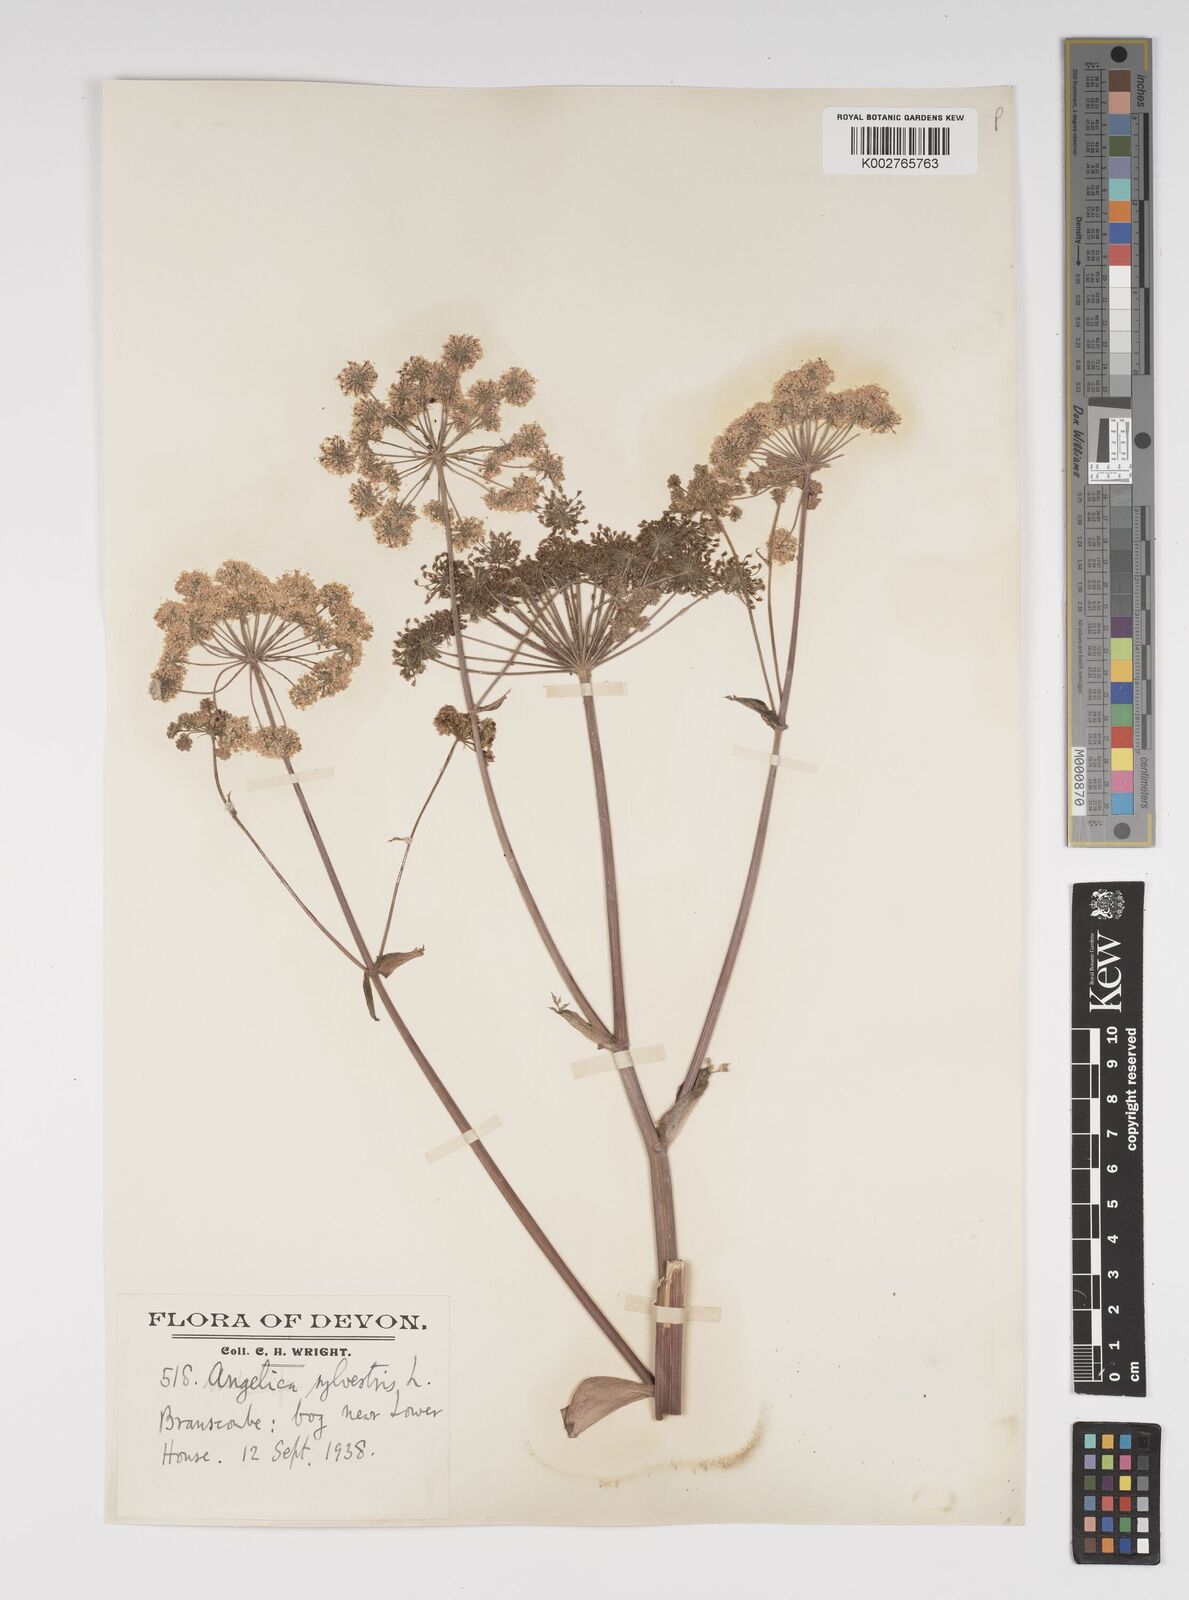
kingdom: Plantae
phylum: Tracheophyta
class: Magnoliopsida
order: Apiales
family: Apiaceae
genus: Angelica
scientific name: Angelica sylvestris
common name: Wild angelica
